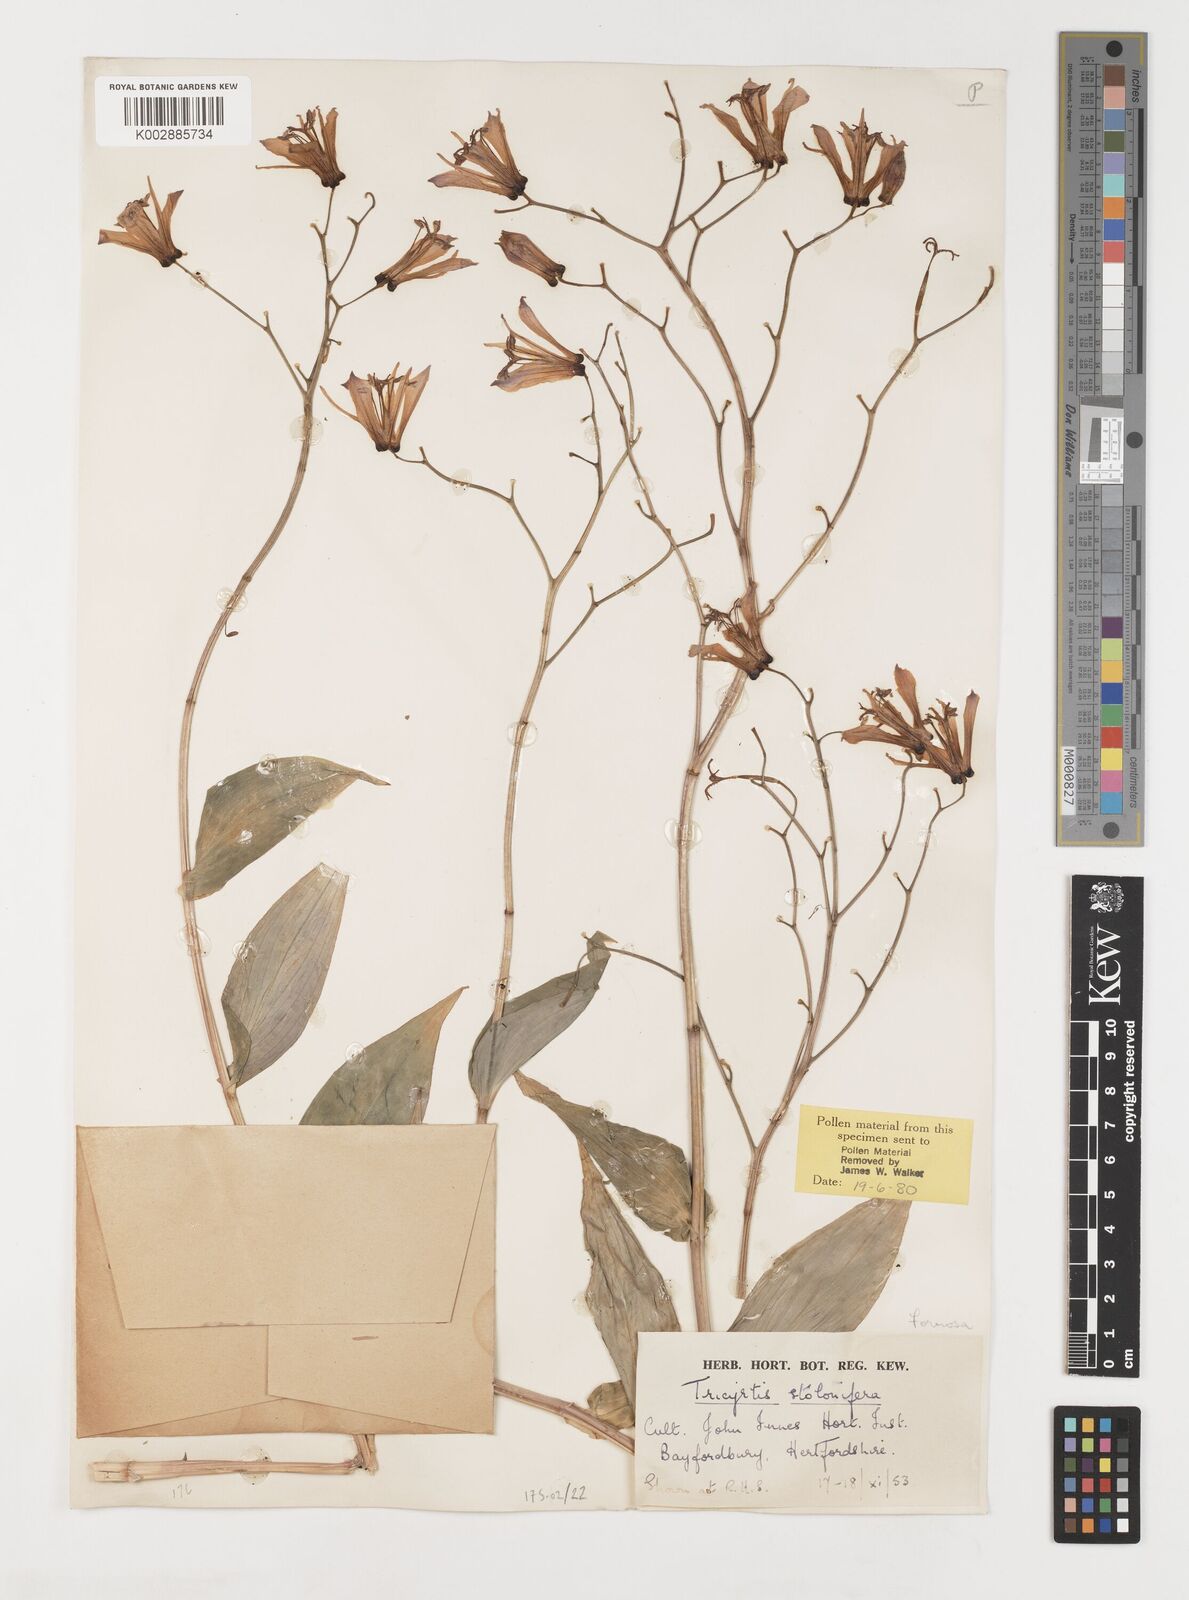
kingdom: Plantae
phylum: Tracheophyta
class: Liliopsida
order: Liliales
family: Liliaceae
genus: Tricyrtis
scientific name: Tricyrtis formosana
